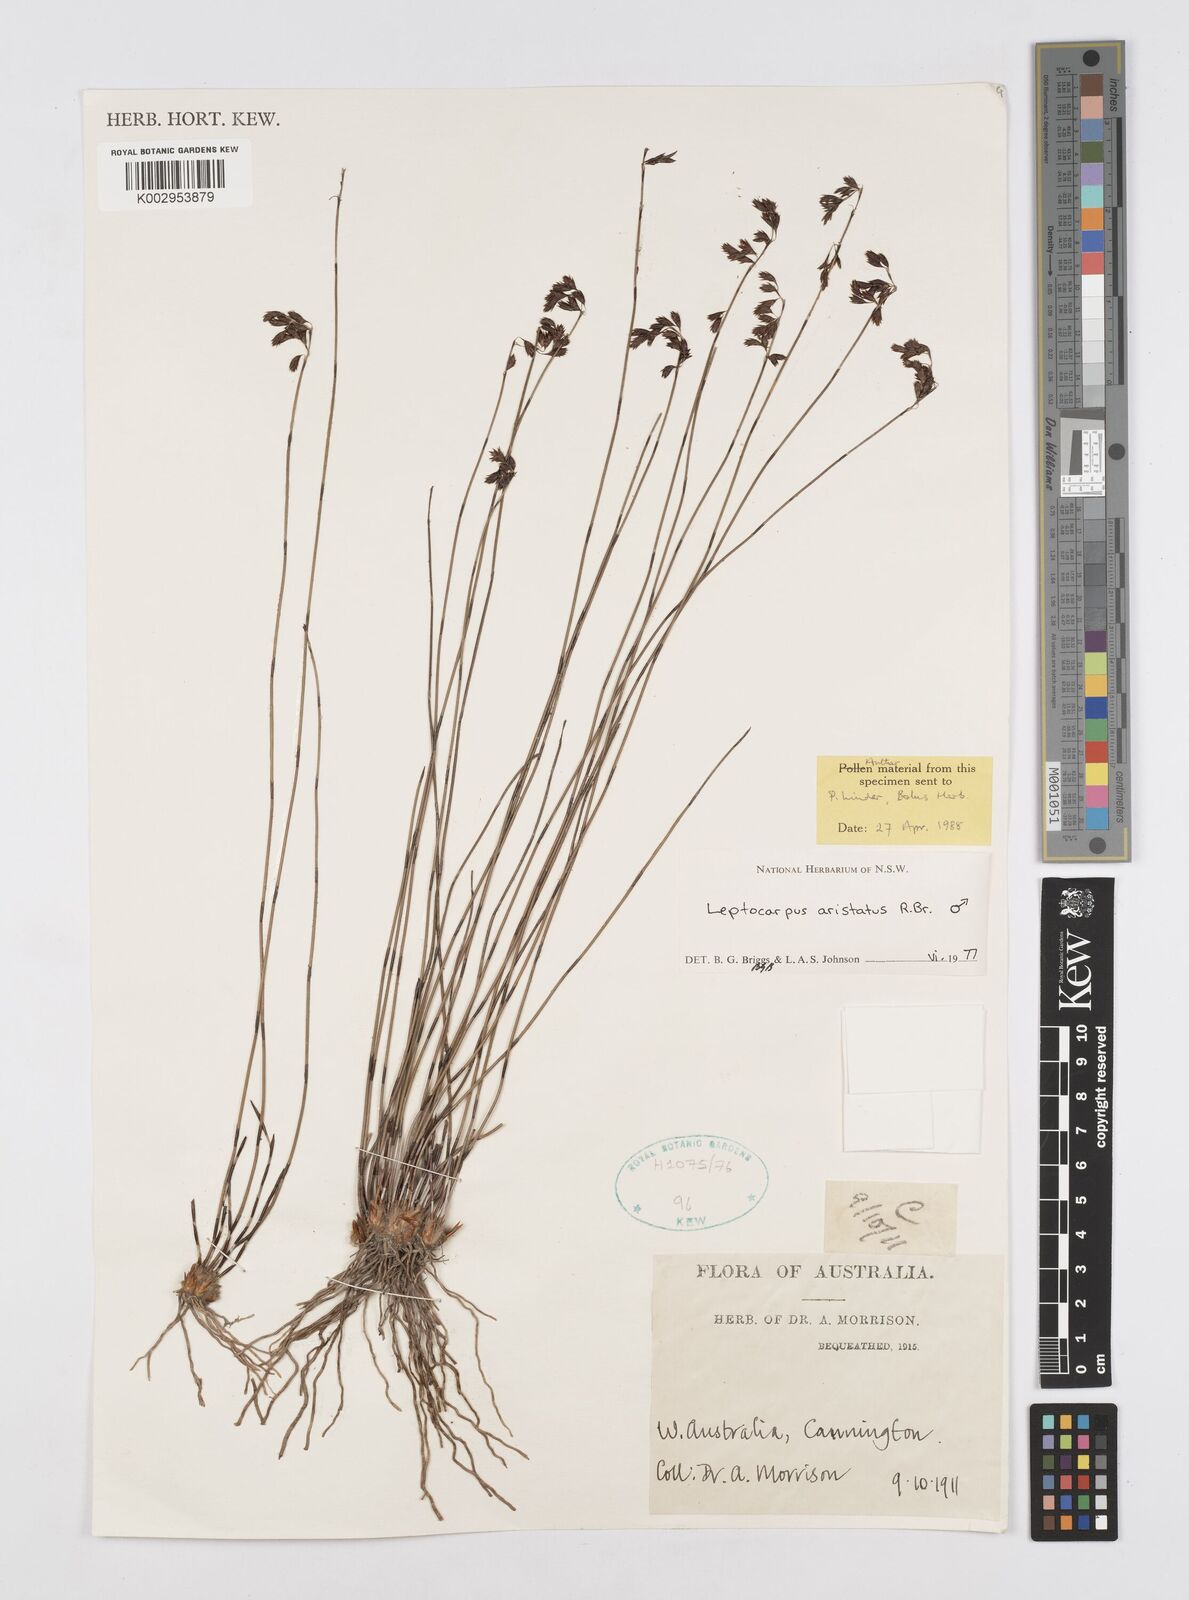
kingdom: Plantae
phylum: Tracheophyta
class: Liliopsida
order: Poales
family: Restionaceae
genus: Chaetanthus
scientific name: Chaetanthus aristatus
